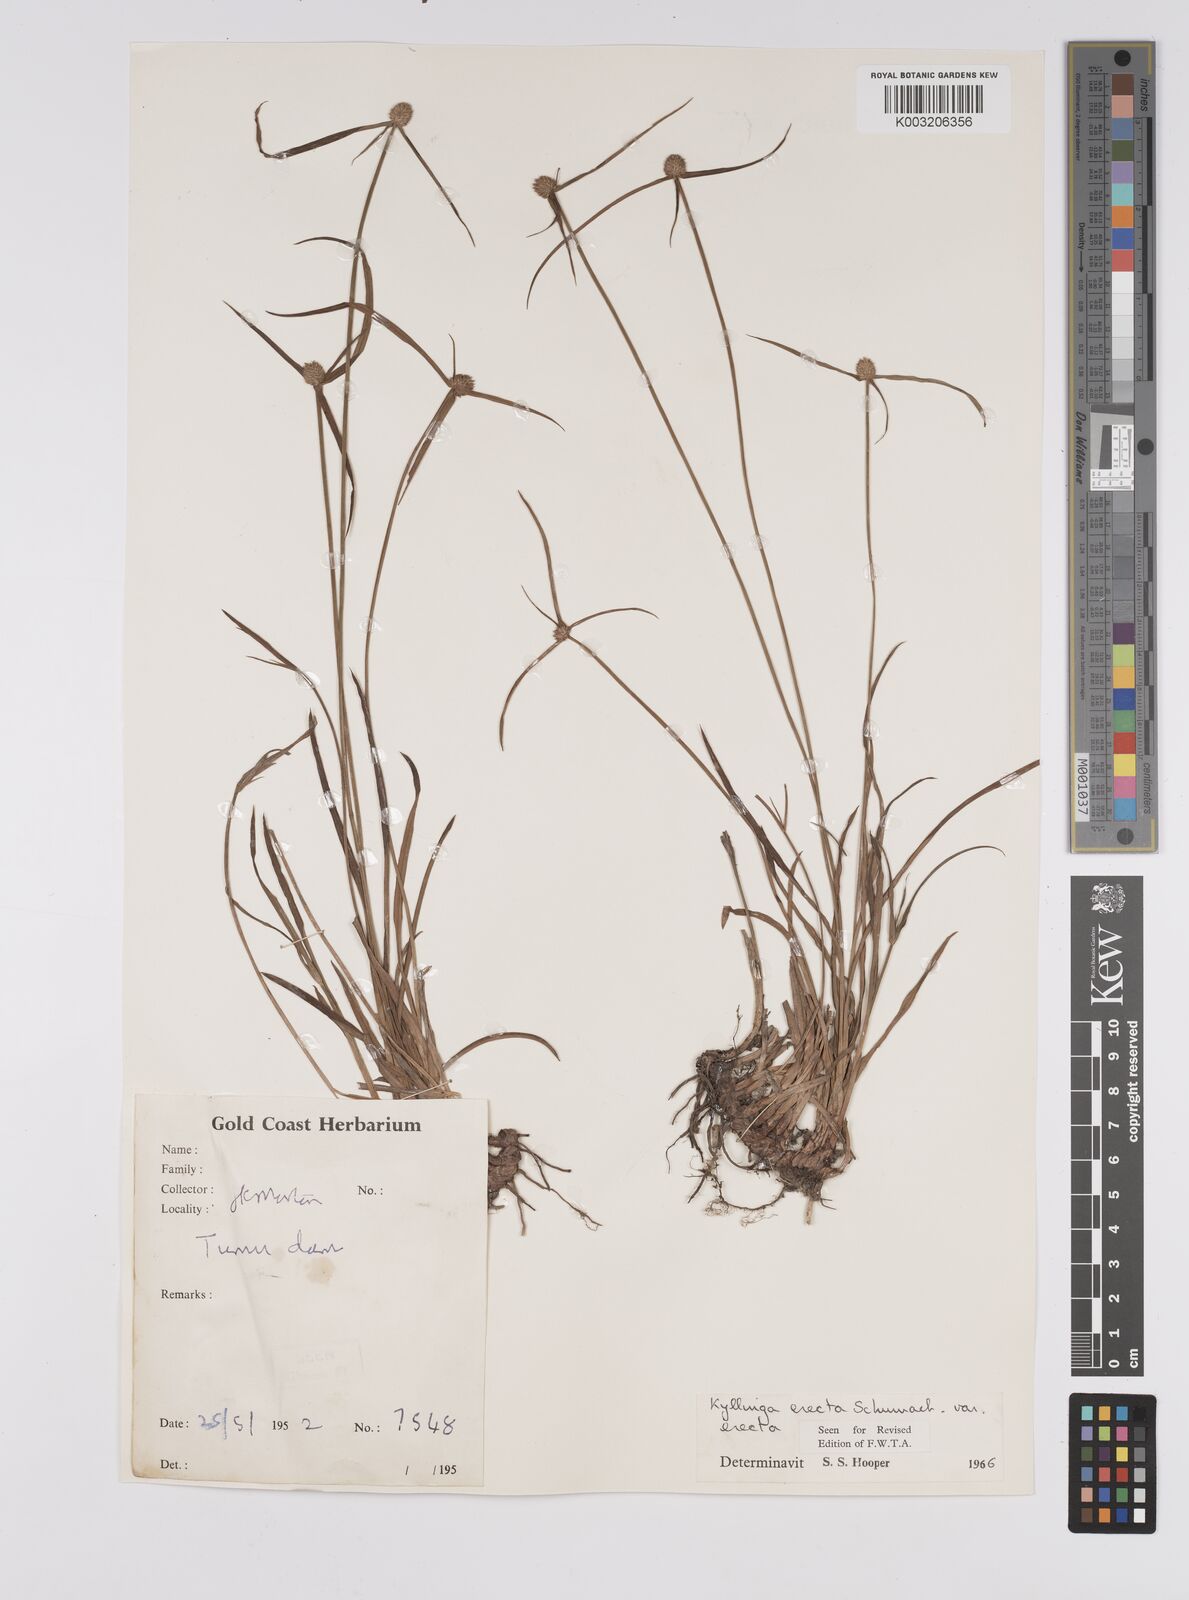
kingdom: Plantae
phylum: Tracheophyta
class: Liliopsida
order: Poales
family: Cyperaceae
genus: Cyperus
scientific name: Cyperus erectus
